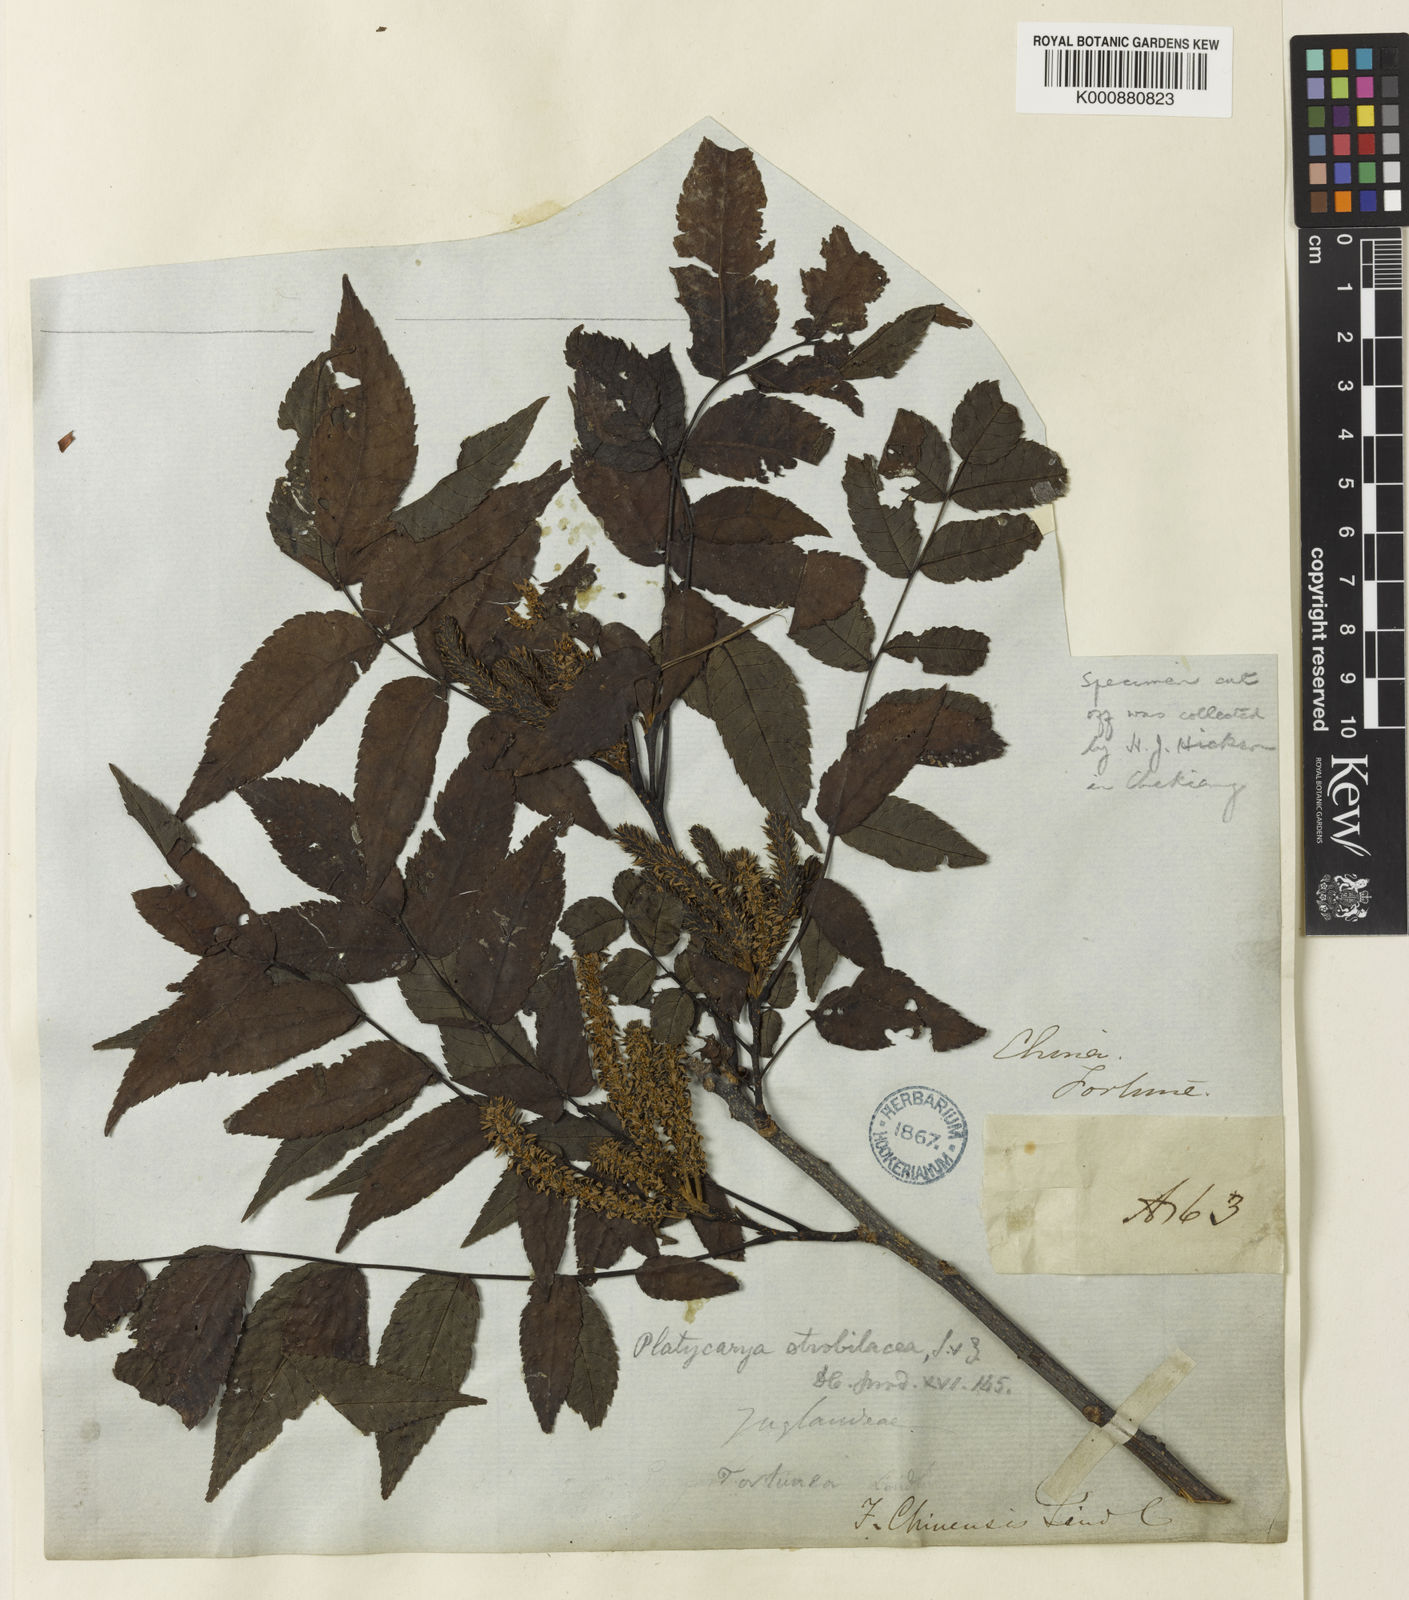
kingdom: Plantae
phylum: Tracheophyta
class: Magnoliopsida
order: Fagales
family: Juglandaceae
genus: Platycarya
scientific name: Platycarya strobilacea
